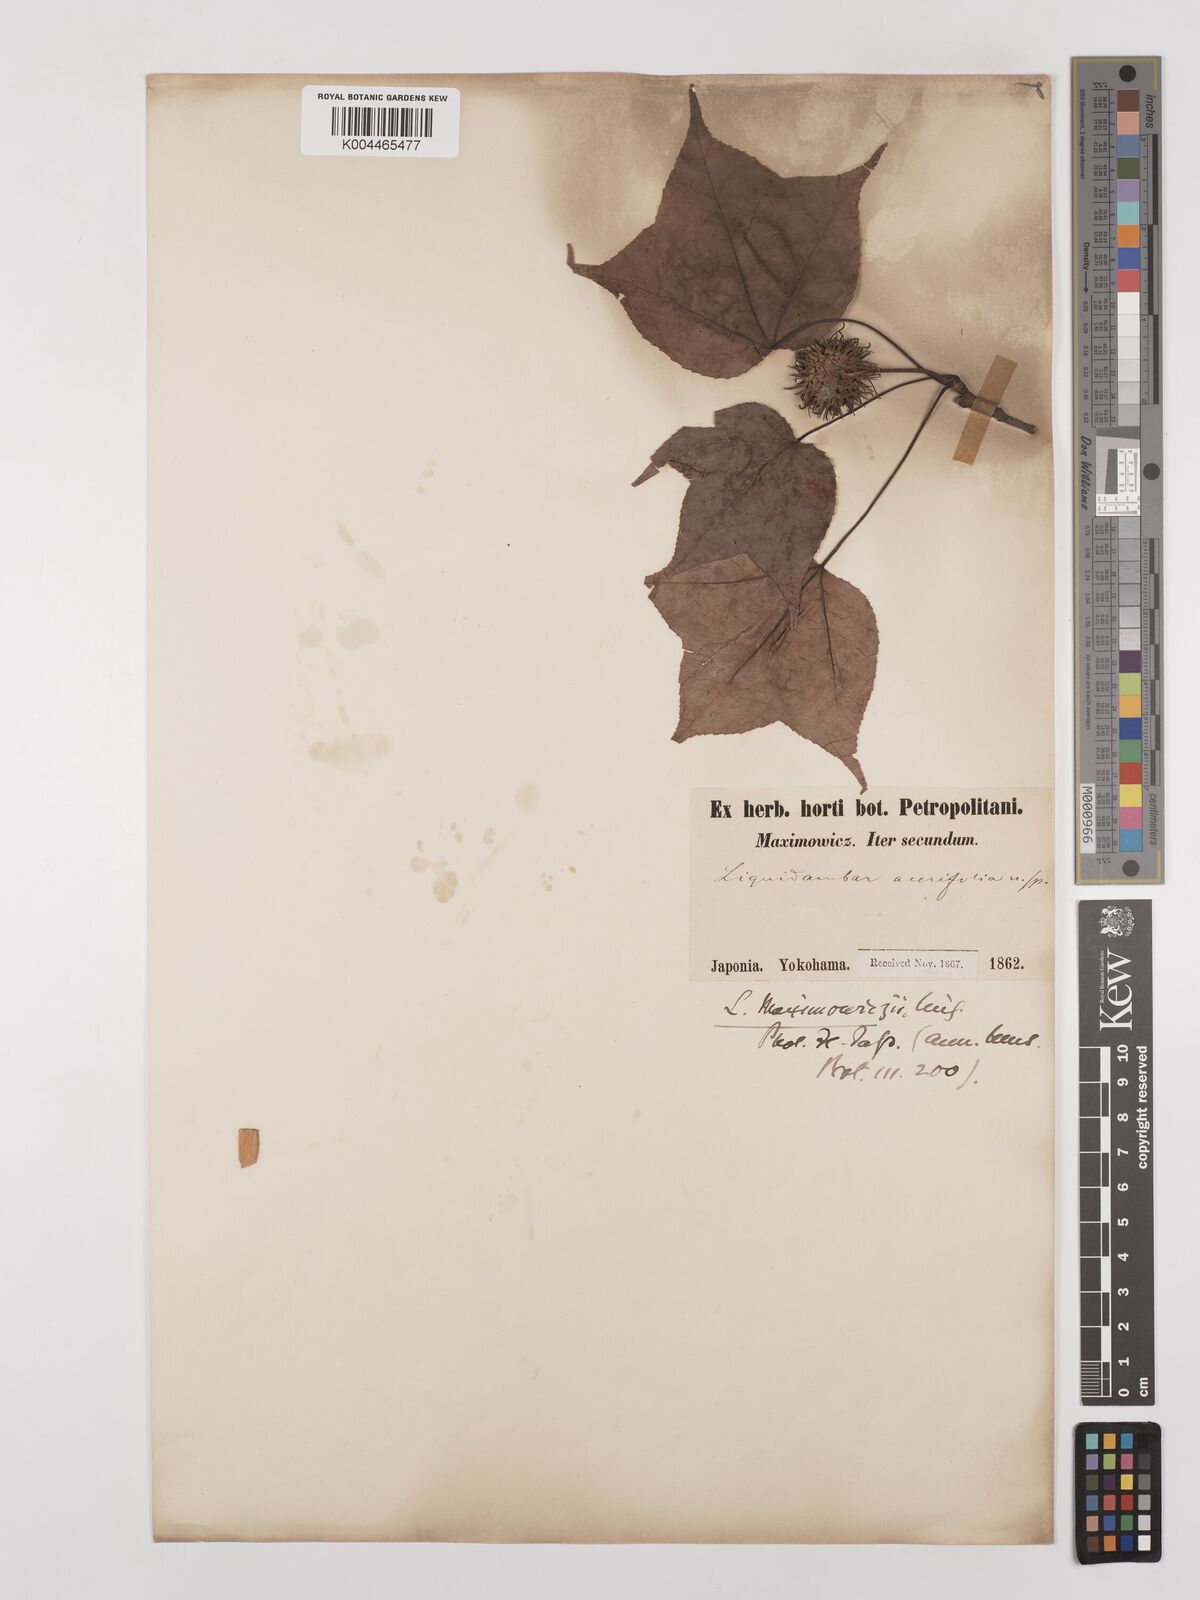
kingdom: Plantae
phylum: Tracheophyta
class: Magnoliopsida
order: Saxifragales
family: Altingiaceae
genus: Liquidambar
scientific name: Liquidambar formosana
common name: Chinese sweet gum
